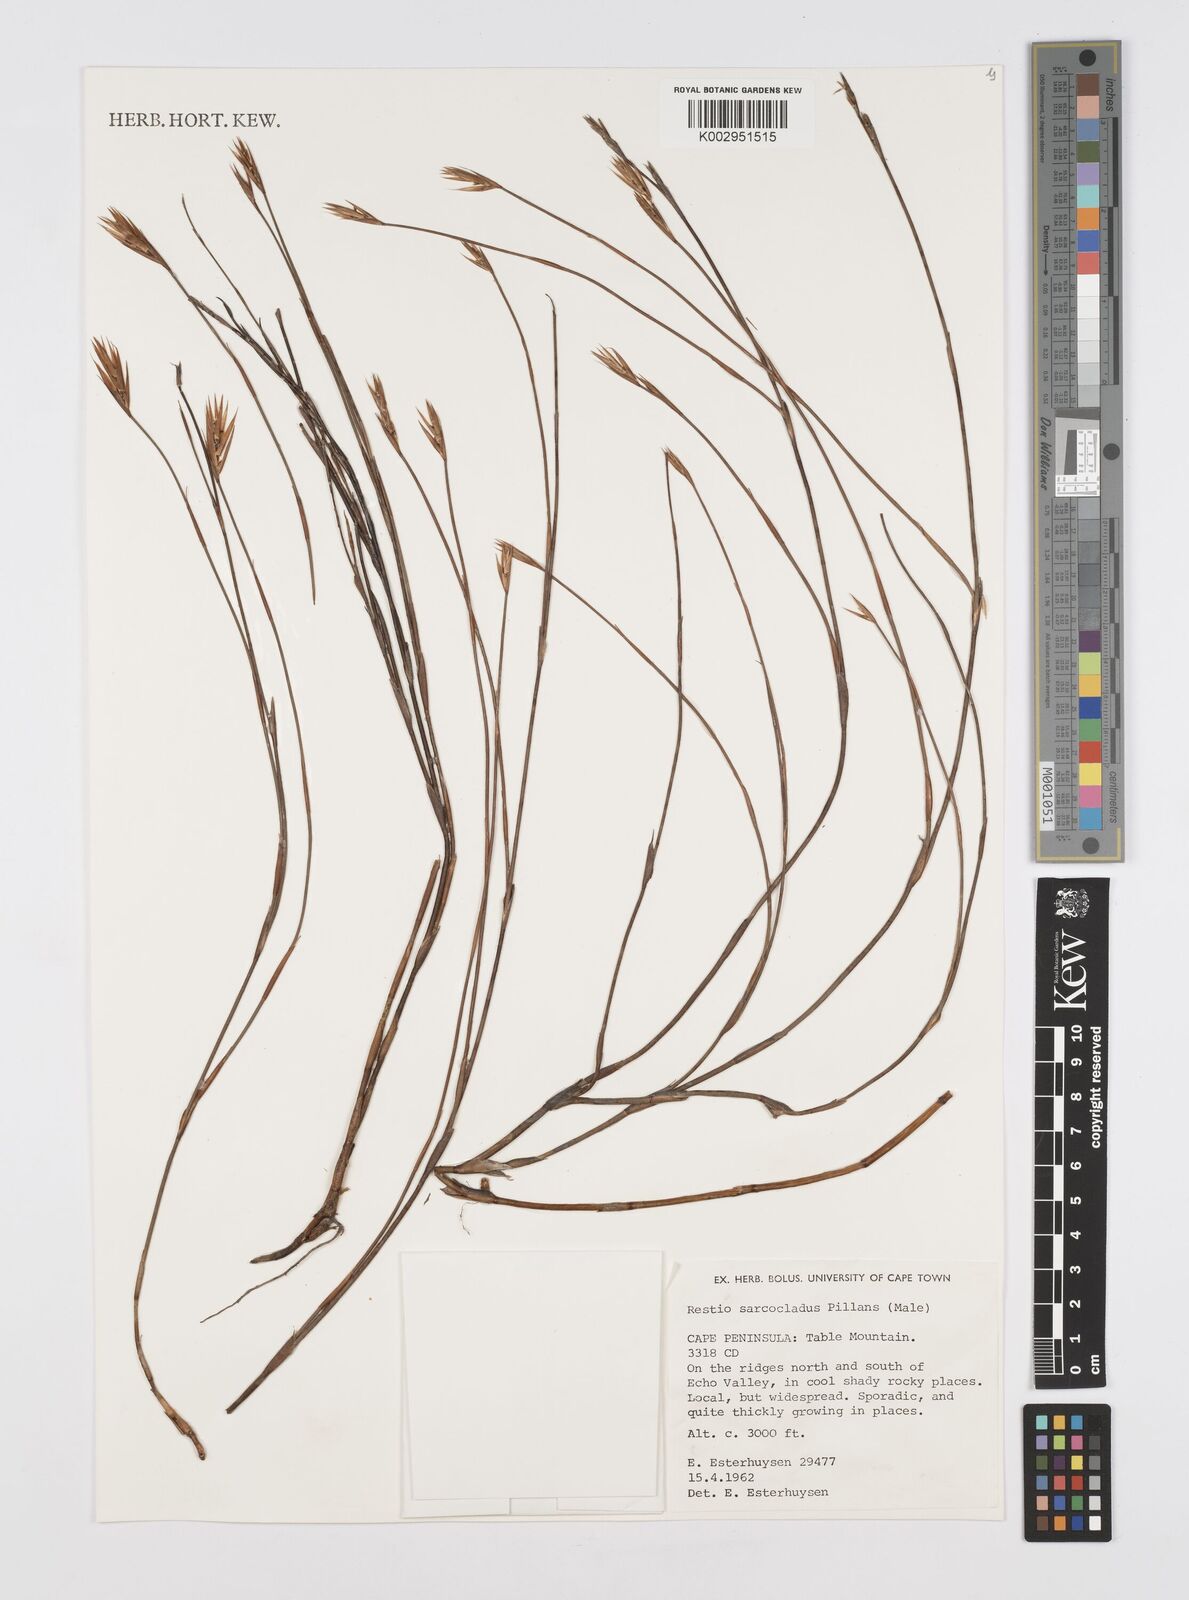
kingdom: Plantae
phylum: Tracheophyta
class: Liliopsida
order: Poales
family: Restionaceae
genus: Restio
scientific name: Restio saroclados
